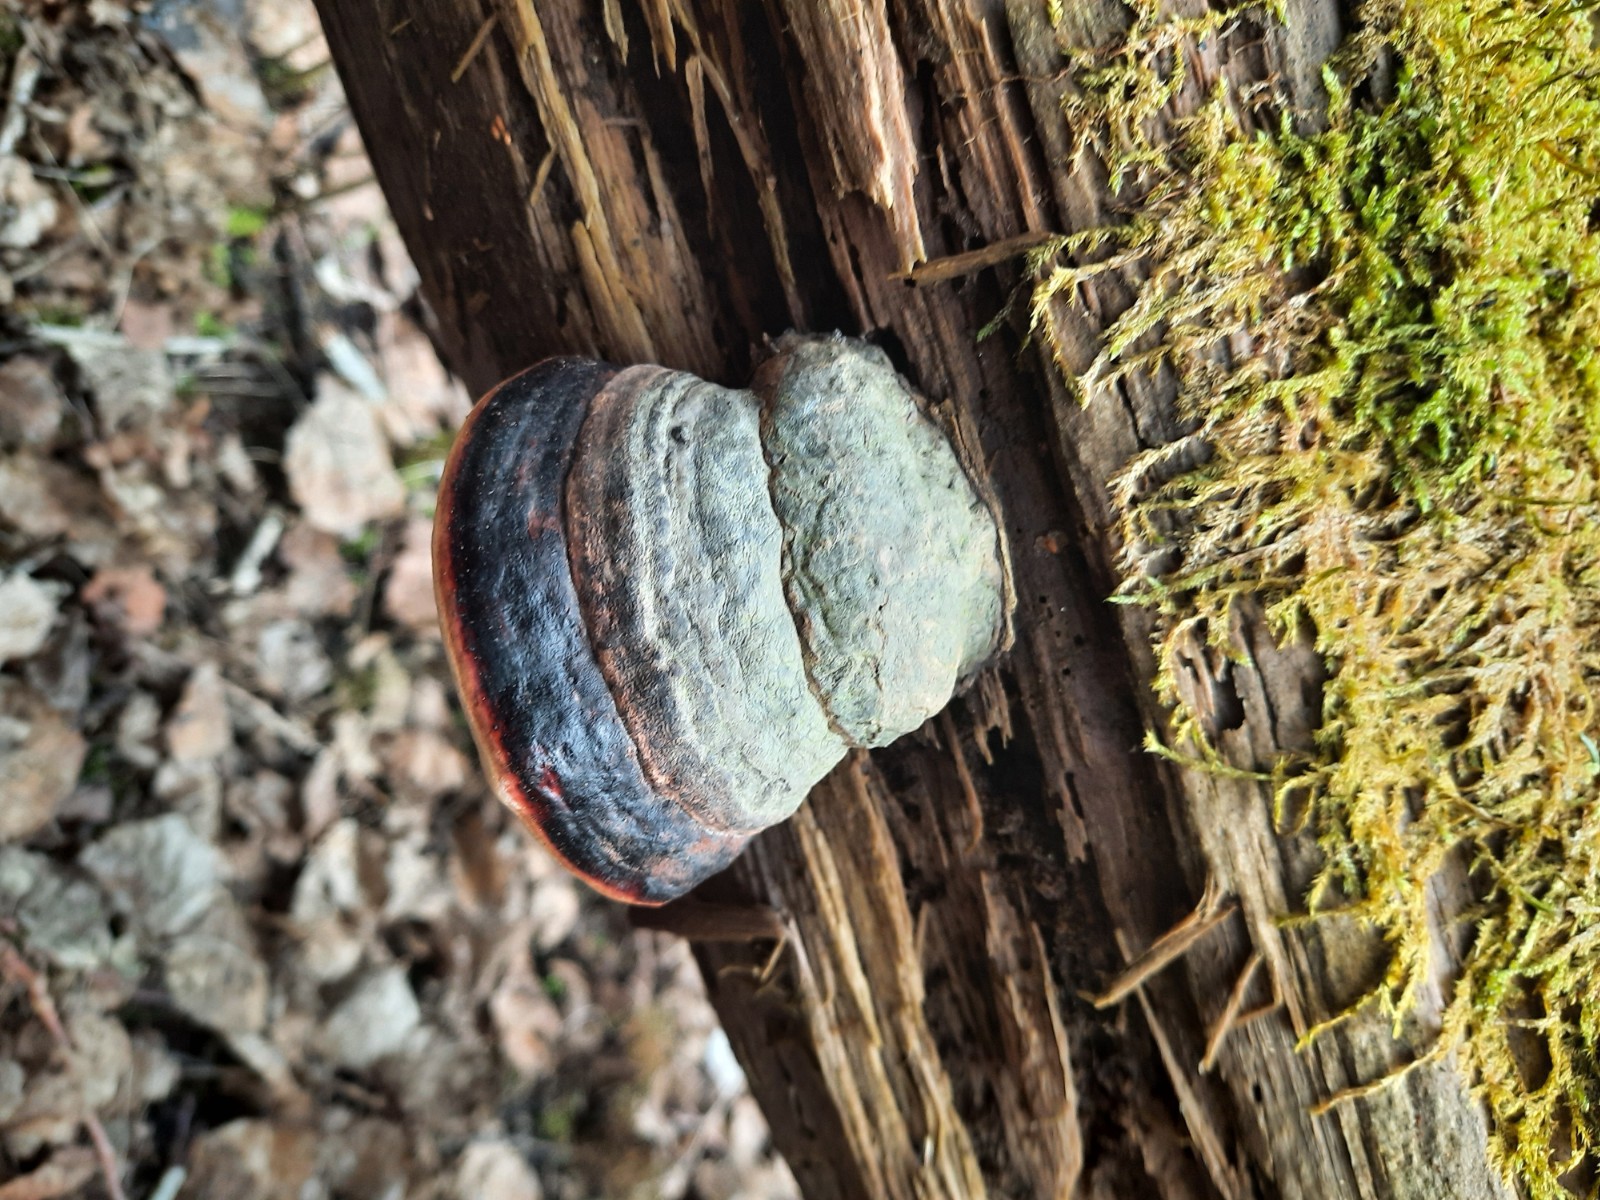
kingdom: Fungi
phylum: Basidiomycota
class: Agaricomycetes
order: Polyporales
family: Fomitopsidaceae
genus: Fomitopsis
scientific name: Fomitopsis pinicola
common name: randbæltet hovporesvamp
